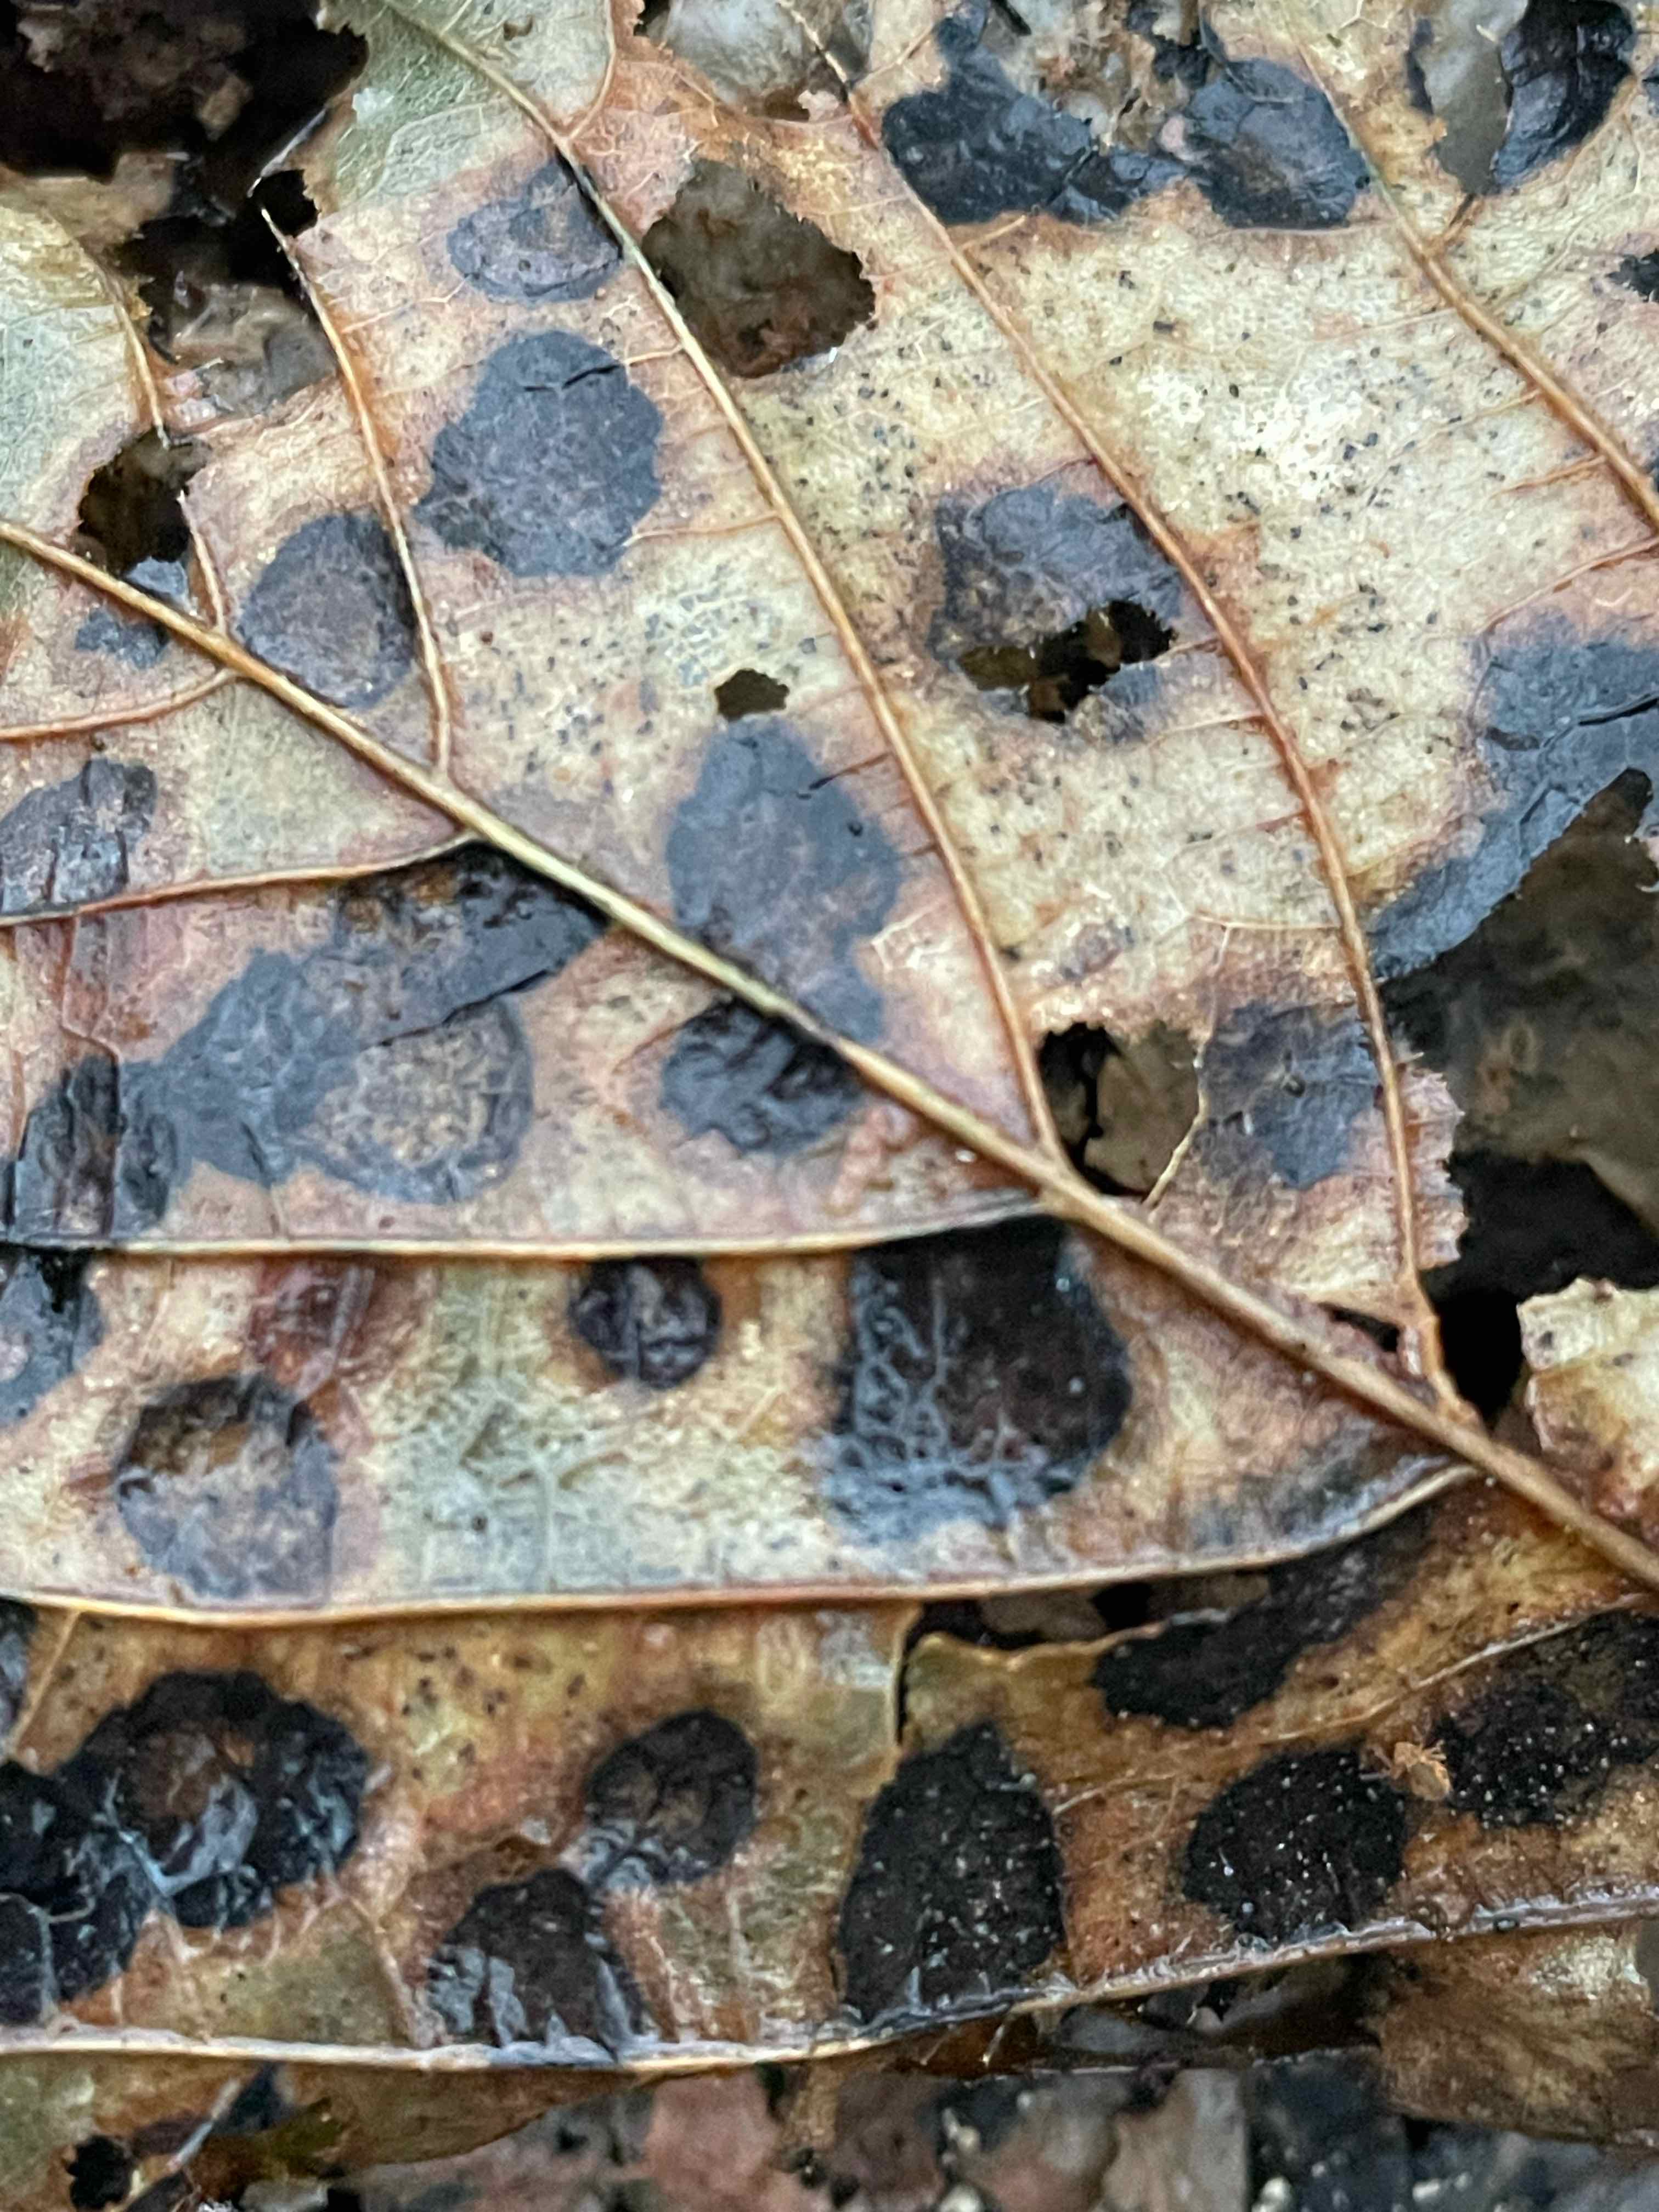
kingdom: Fungi
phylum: Ascomycota
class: Leotiomycetes
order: Rhytismatales
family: Rhytismataceae
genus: Rhytisma
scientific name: Rhytisma acerinum
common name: ahorn-rynkeplet
